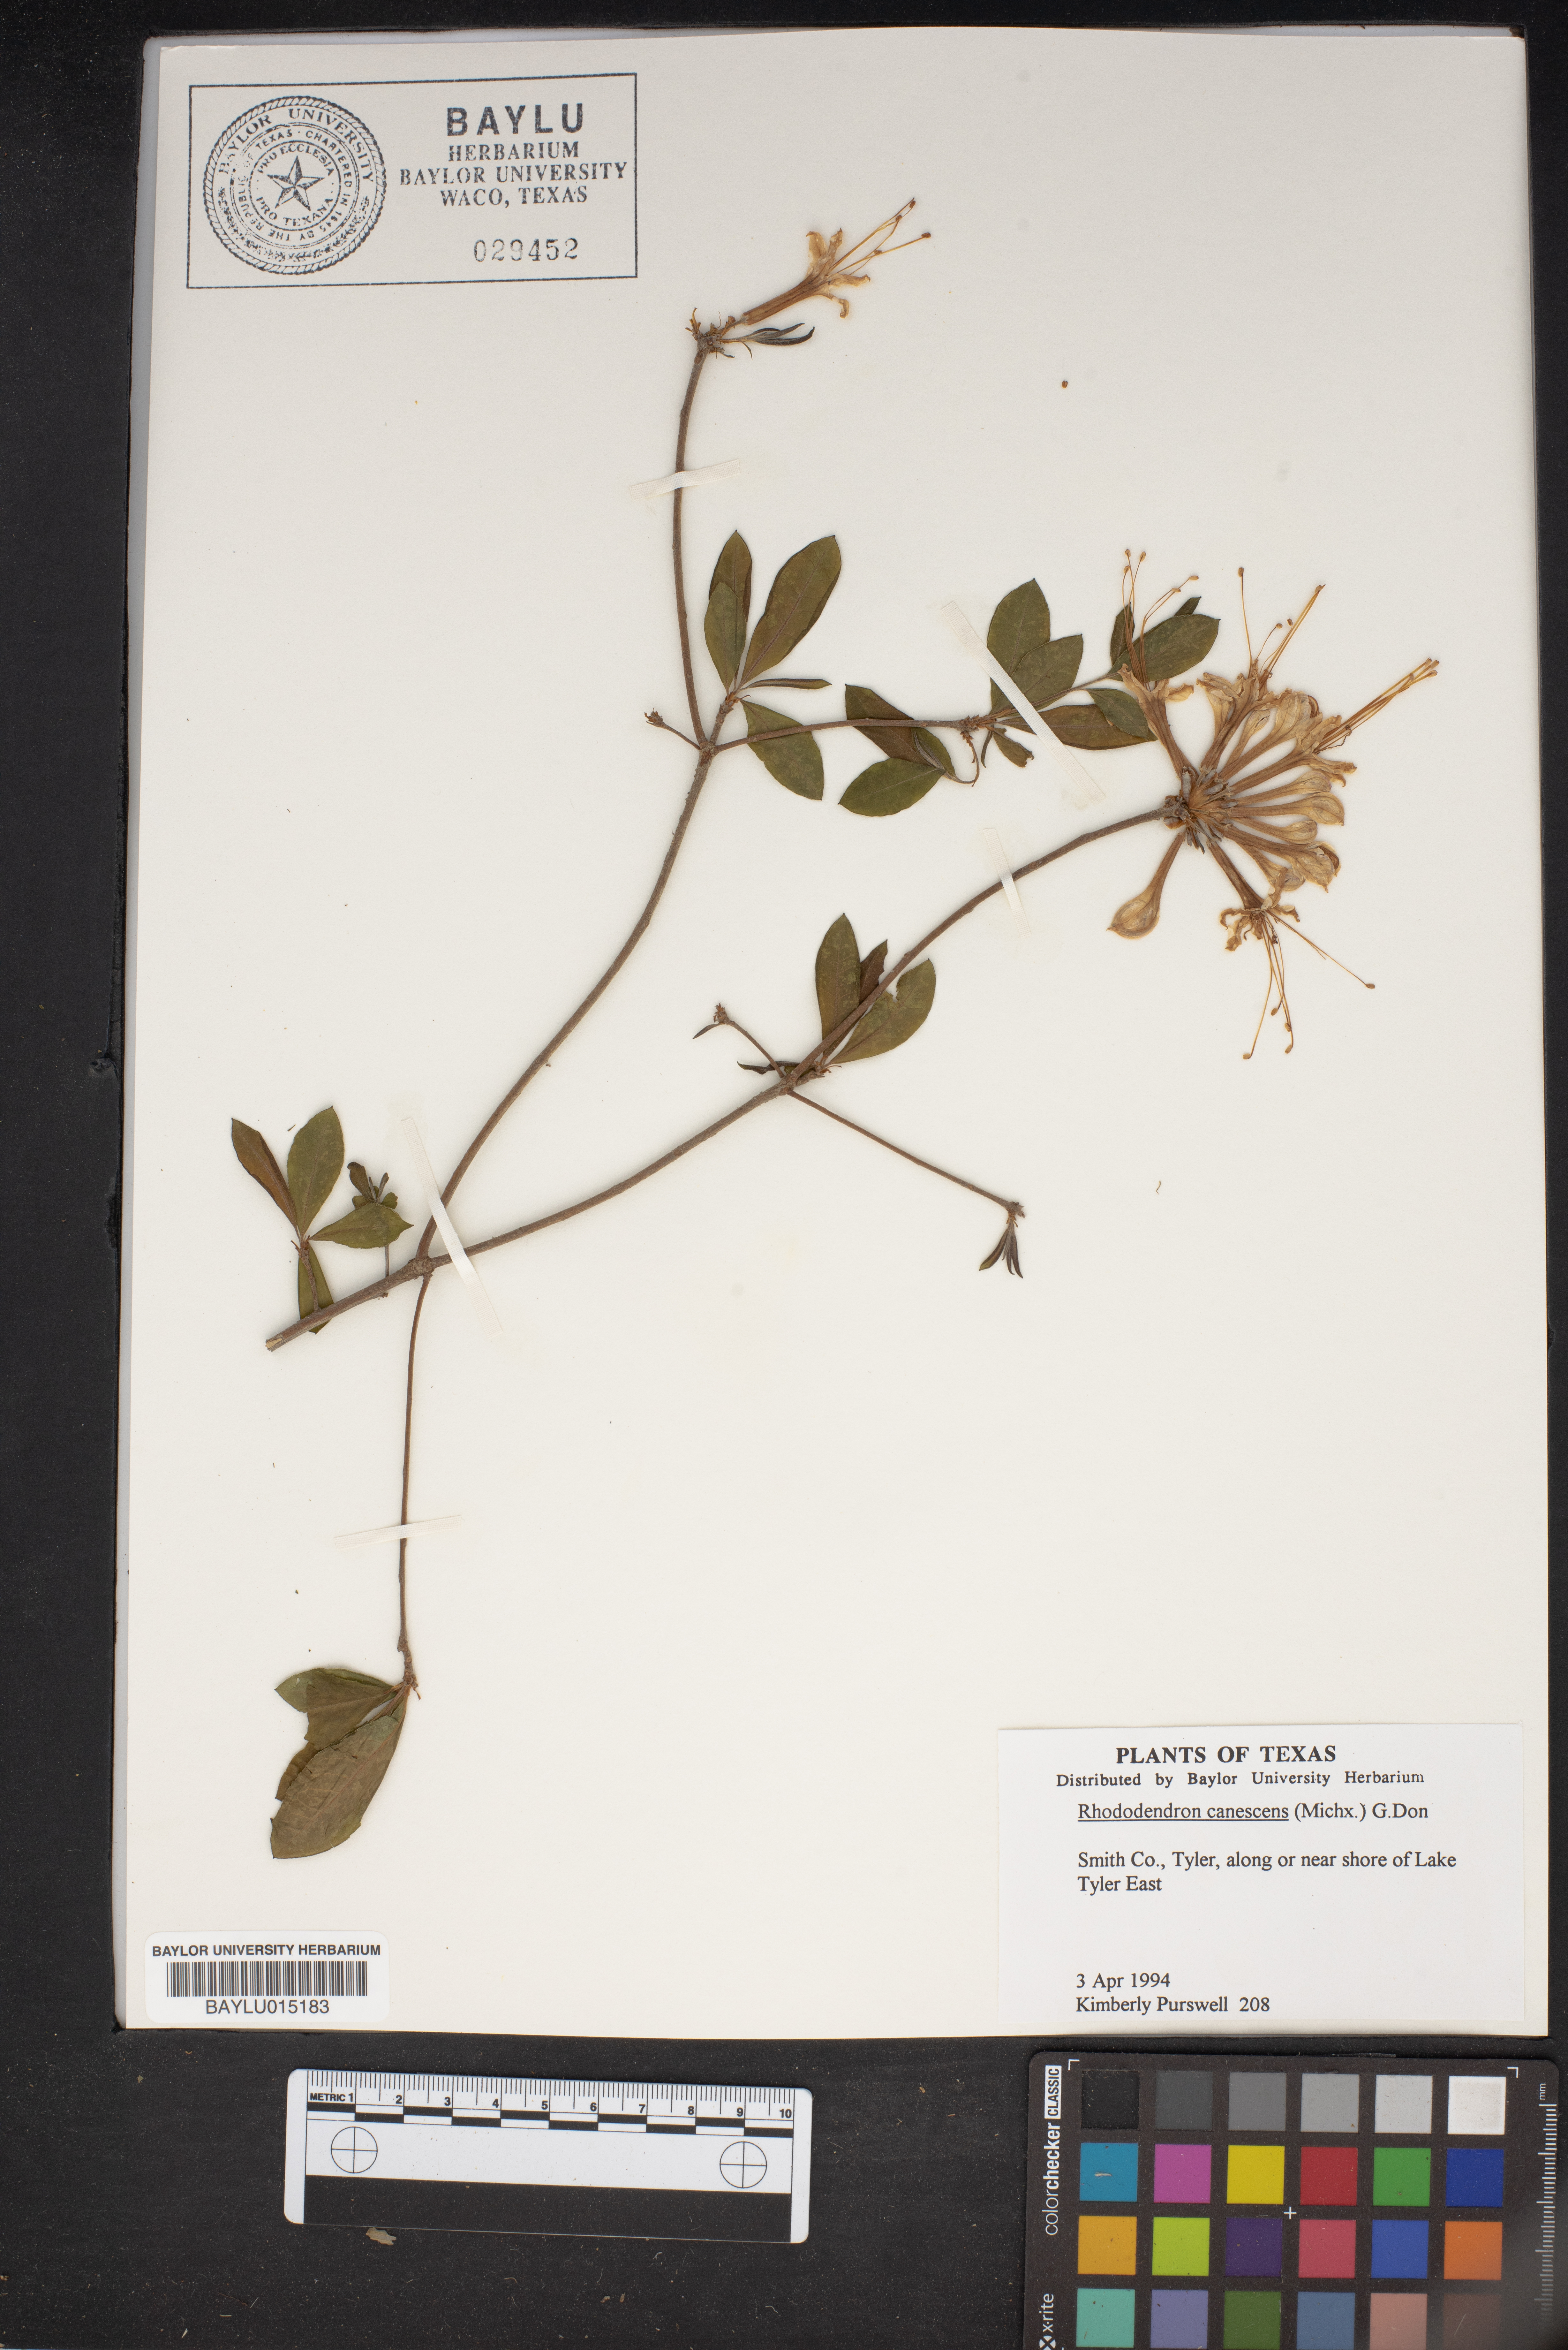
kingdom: Plantae
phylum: Tracheophyta
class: Magnoliopsida
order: Ericales
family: Ericaceae
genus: Rhododendron
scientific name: Rhododendron canescens
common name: Mountain azalea
